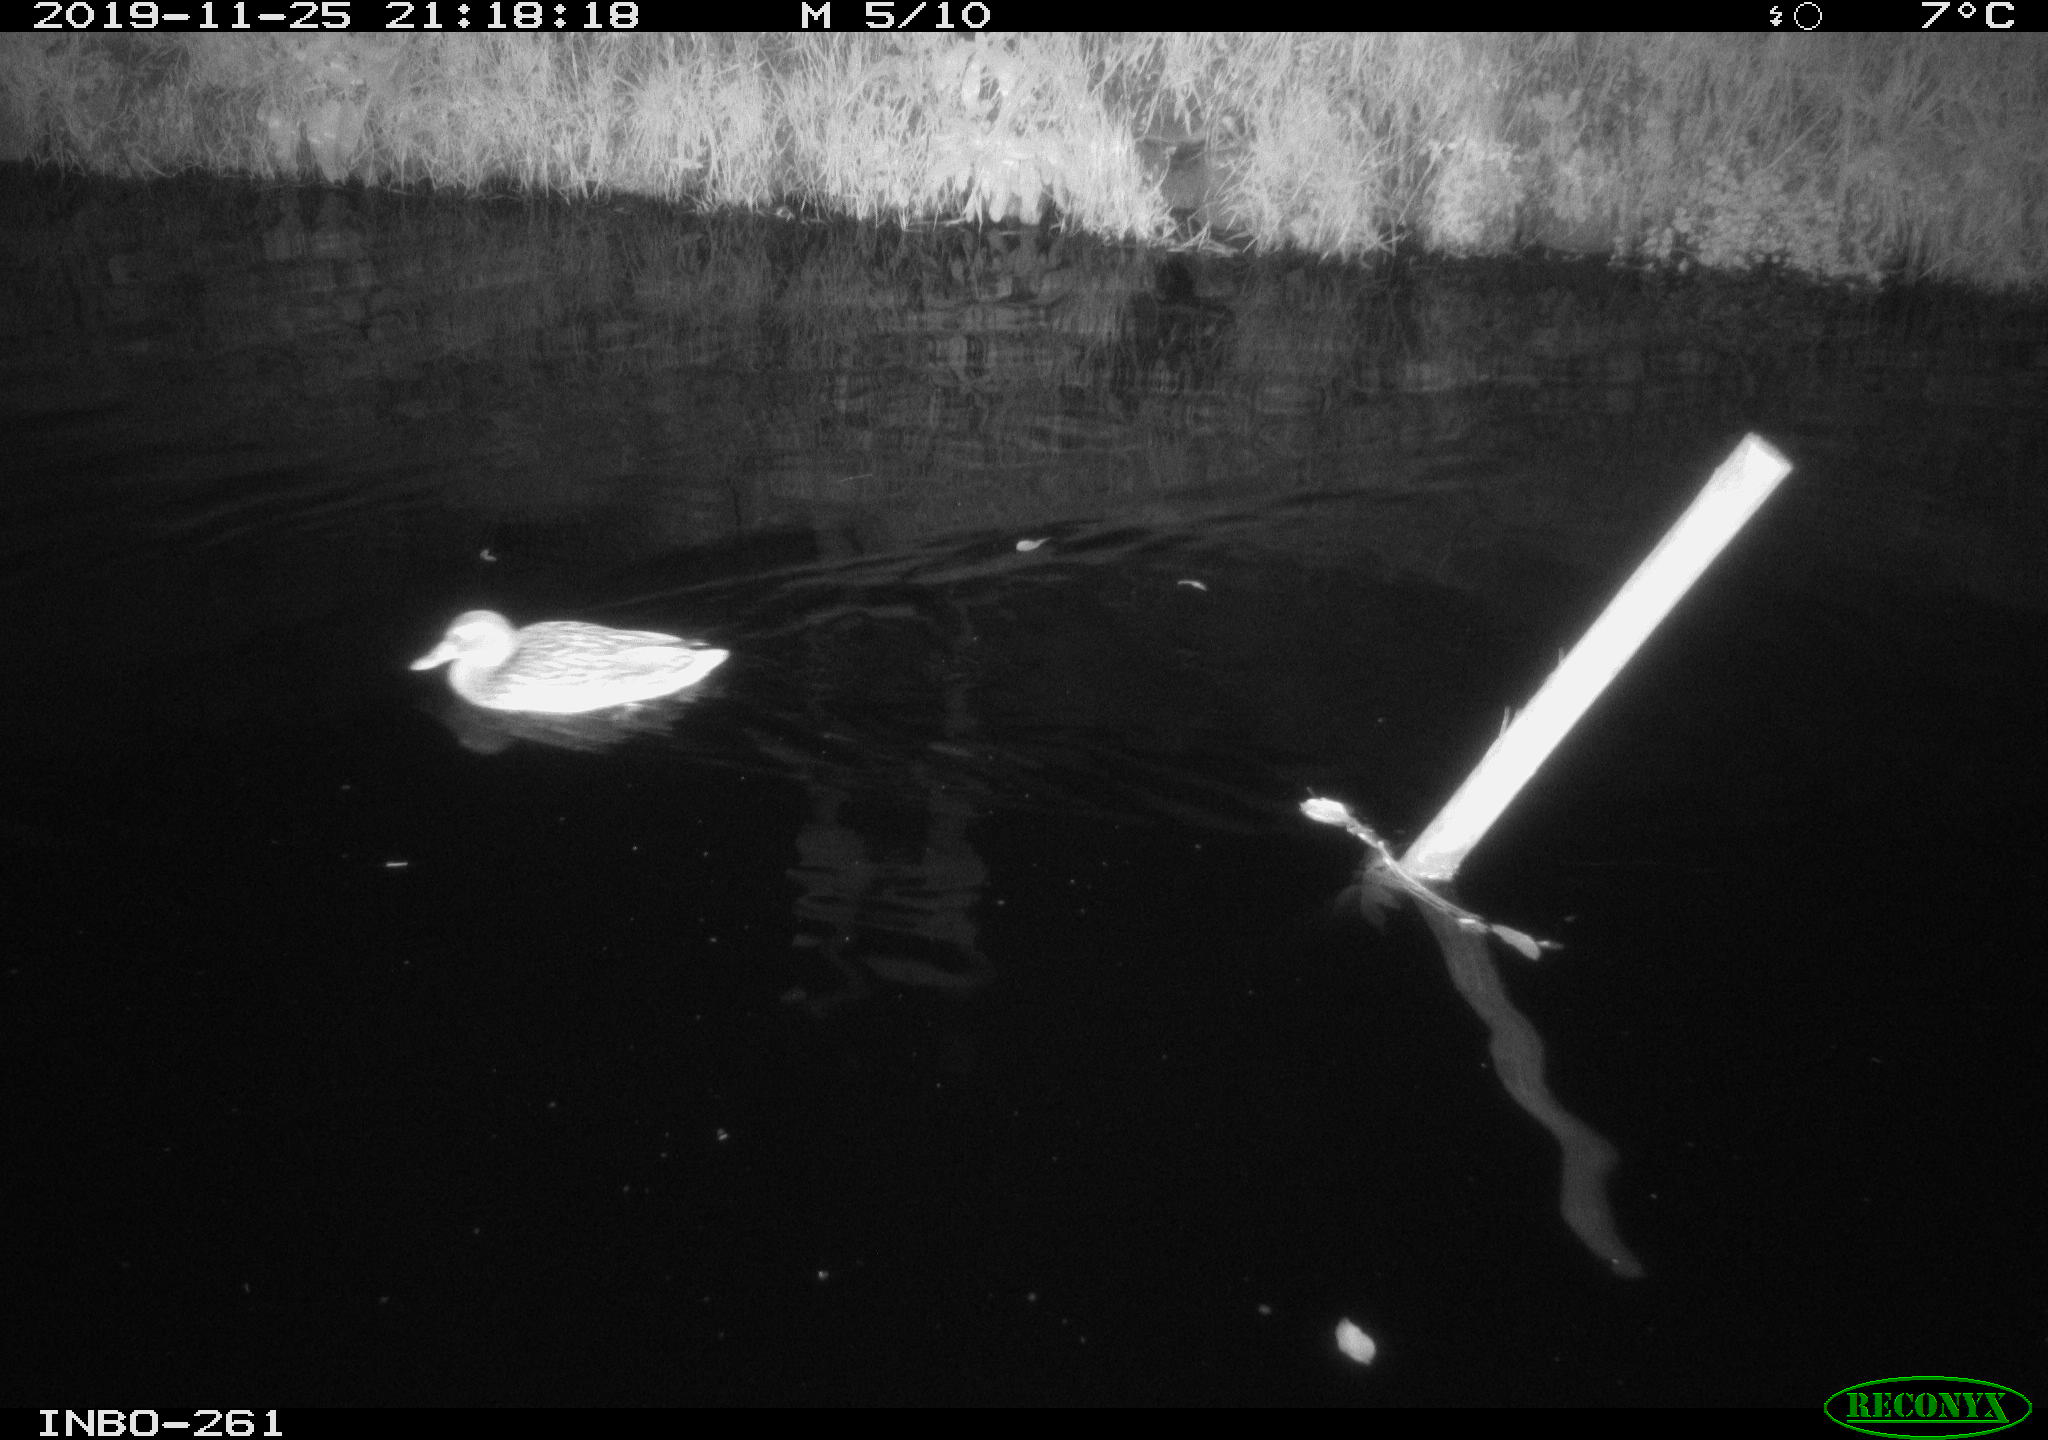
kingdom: Animalia
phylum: Chordata
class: Aves
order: Anseriformes
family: Anatidae
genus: Anas
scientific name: Anas platyrhynchos
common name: Mallard
